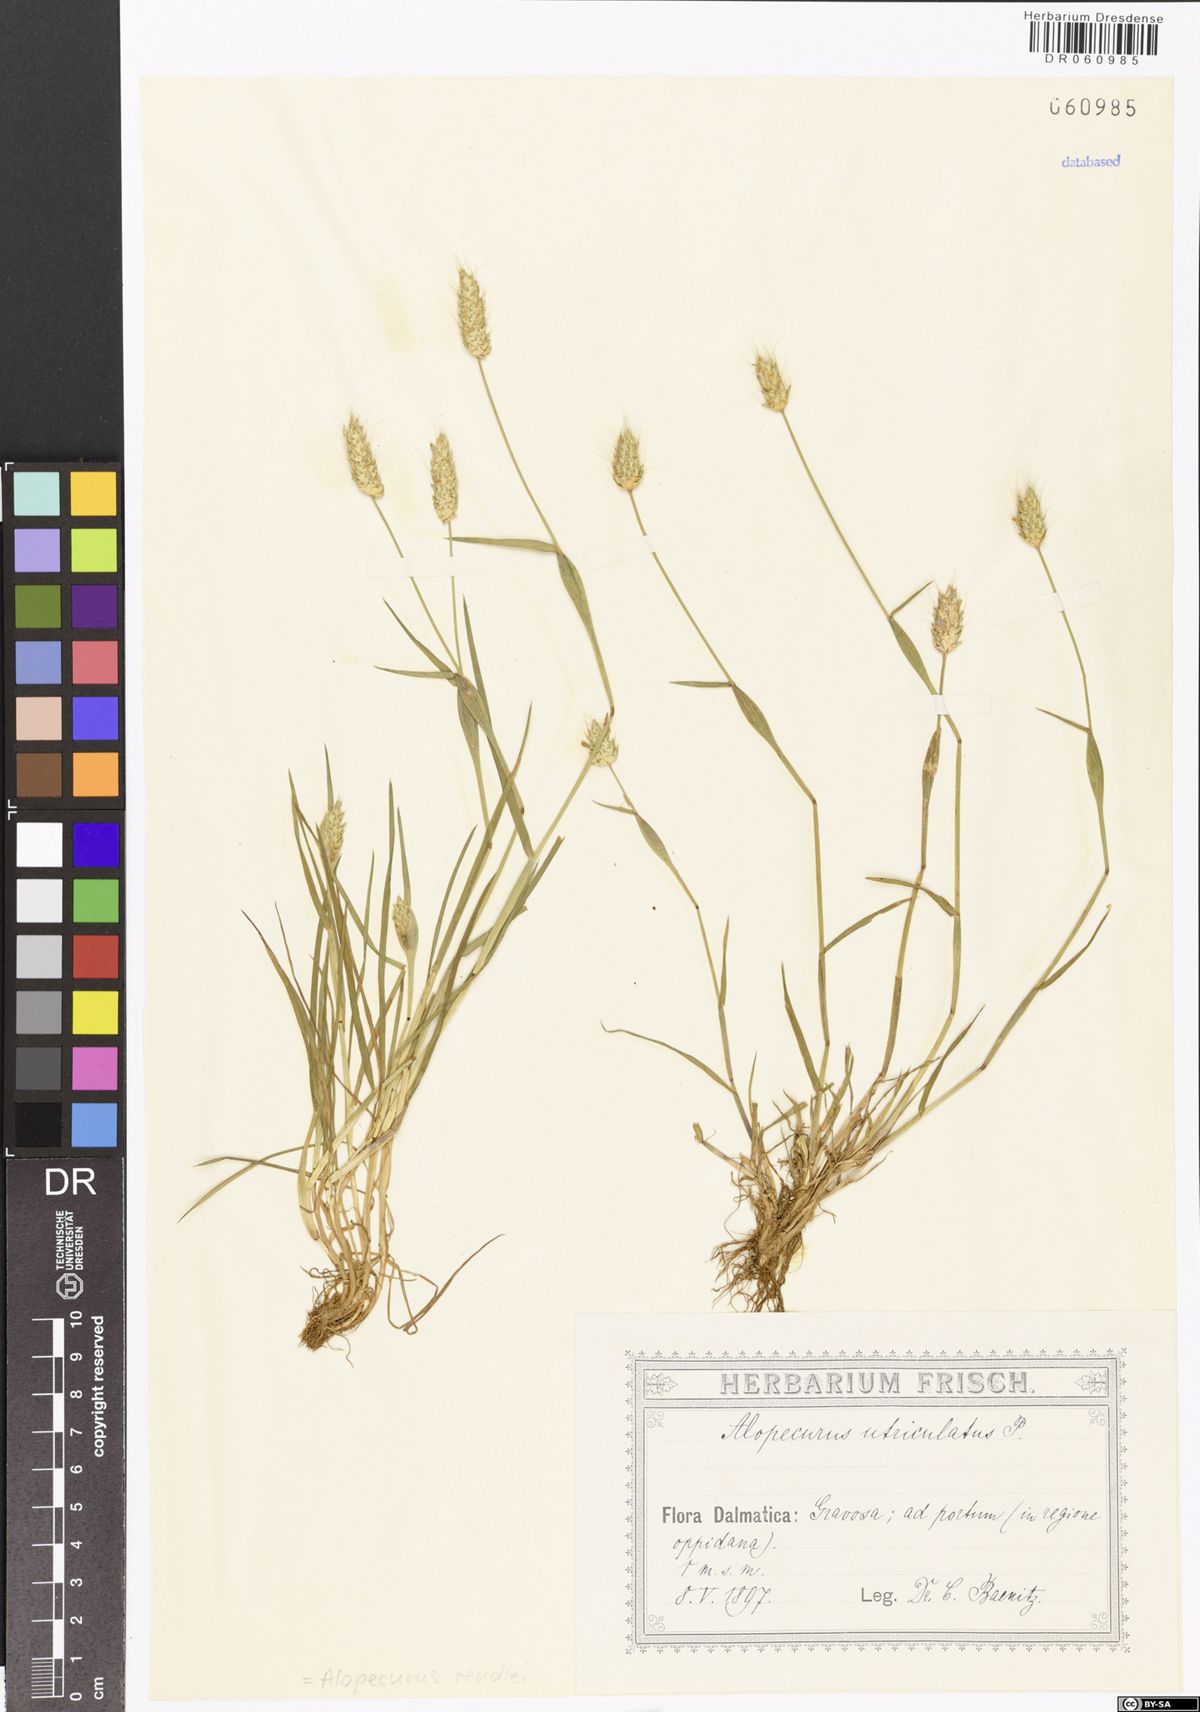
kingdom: Plantae
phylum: Tracheophyta
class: Liliopsida
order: Poales
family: Poaceae
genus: Alopecurus
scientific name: Alopecurus rendlei
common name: Rendle's meadow foxtail
